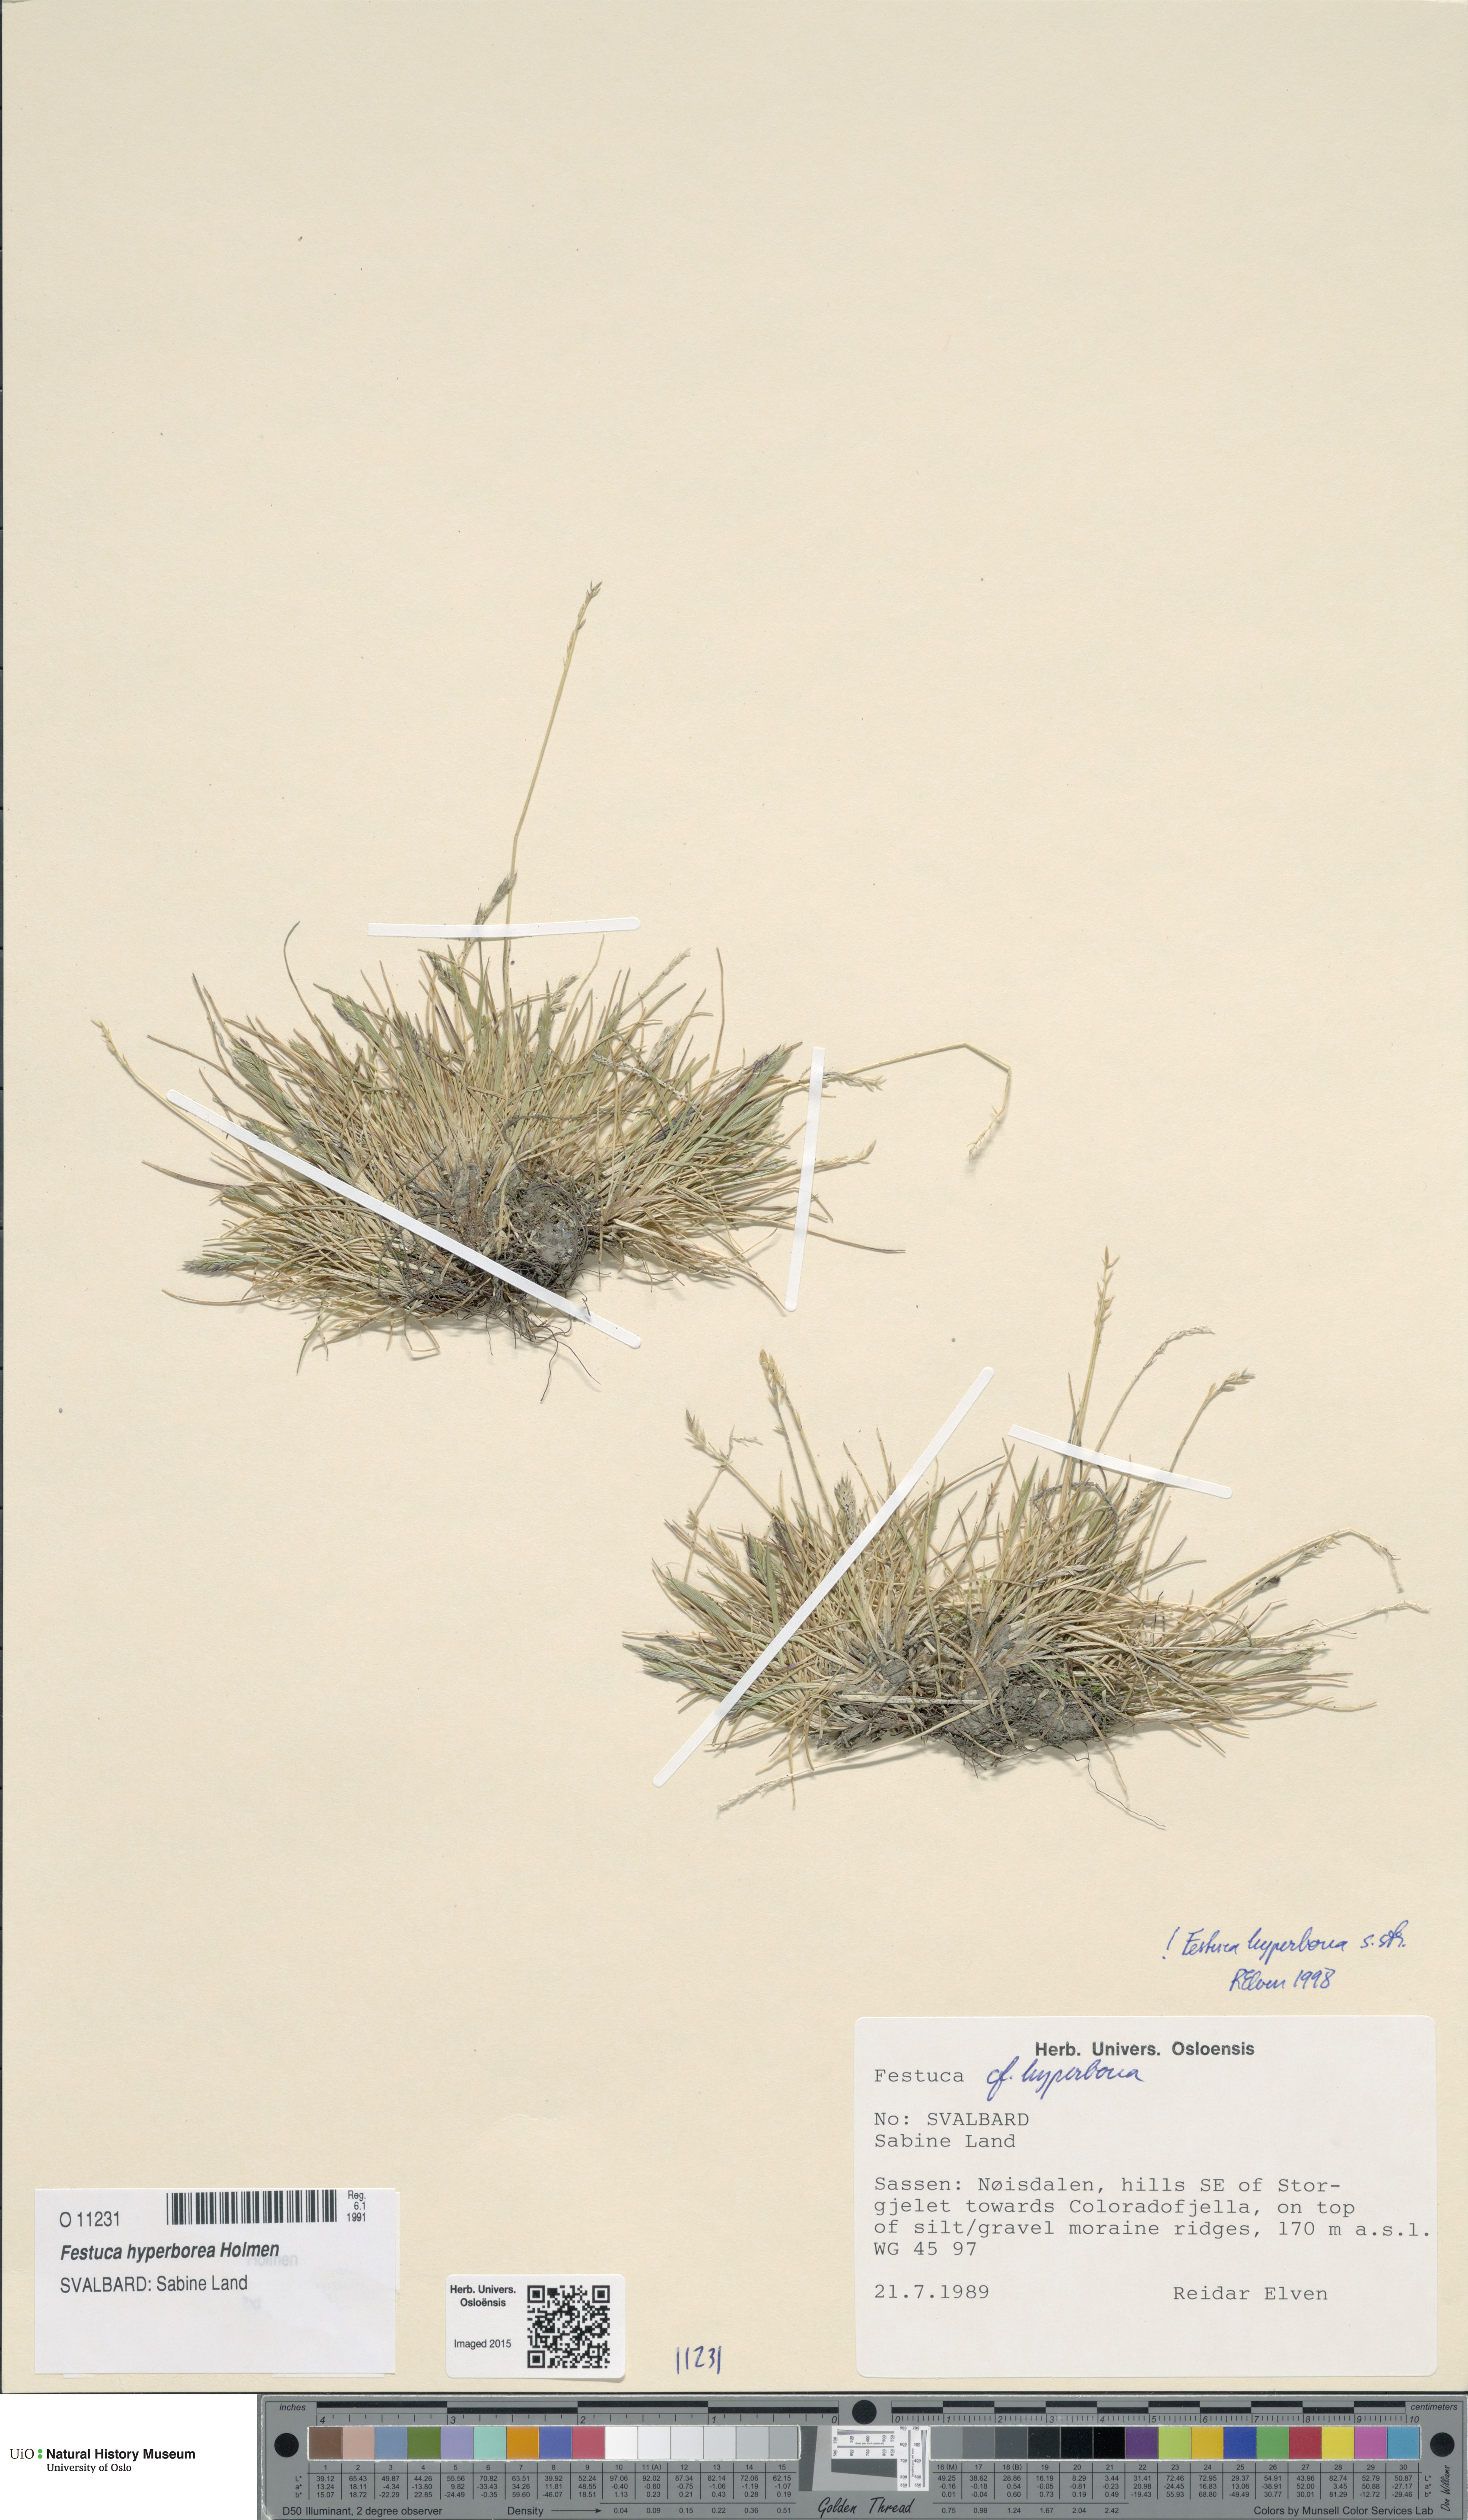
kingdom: Plantae
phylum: Tracheophyta
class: Liliopsida
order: Poales
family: Poaceae
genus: Festuca
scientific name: Festuca hyperborea
